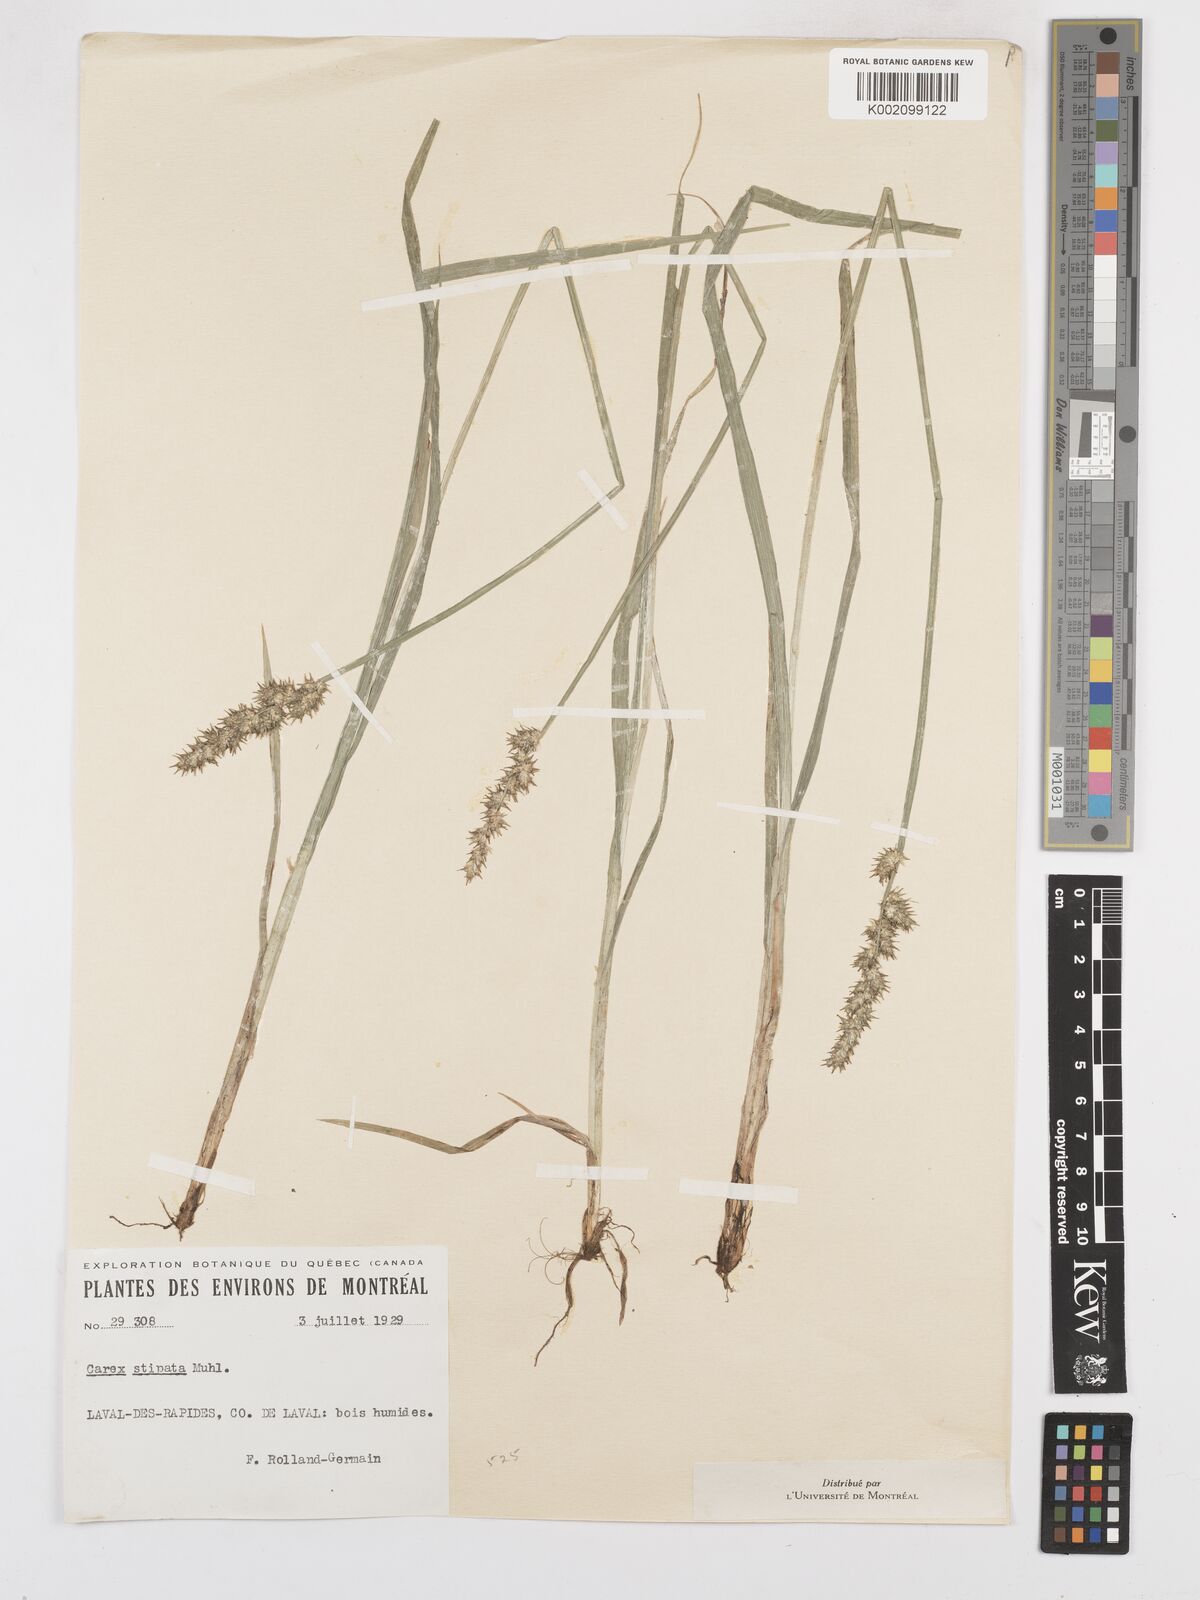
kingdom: Plantae
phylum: Tracheophyta
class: Liliopsida
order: Poales
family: Cyperaceae
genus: Carex
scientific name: Carex stipata
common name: Awl-fruited sedge
